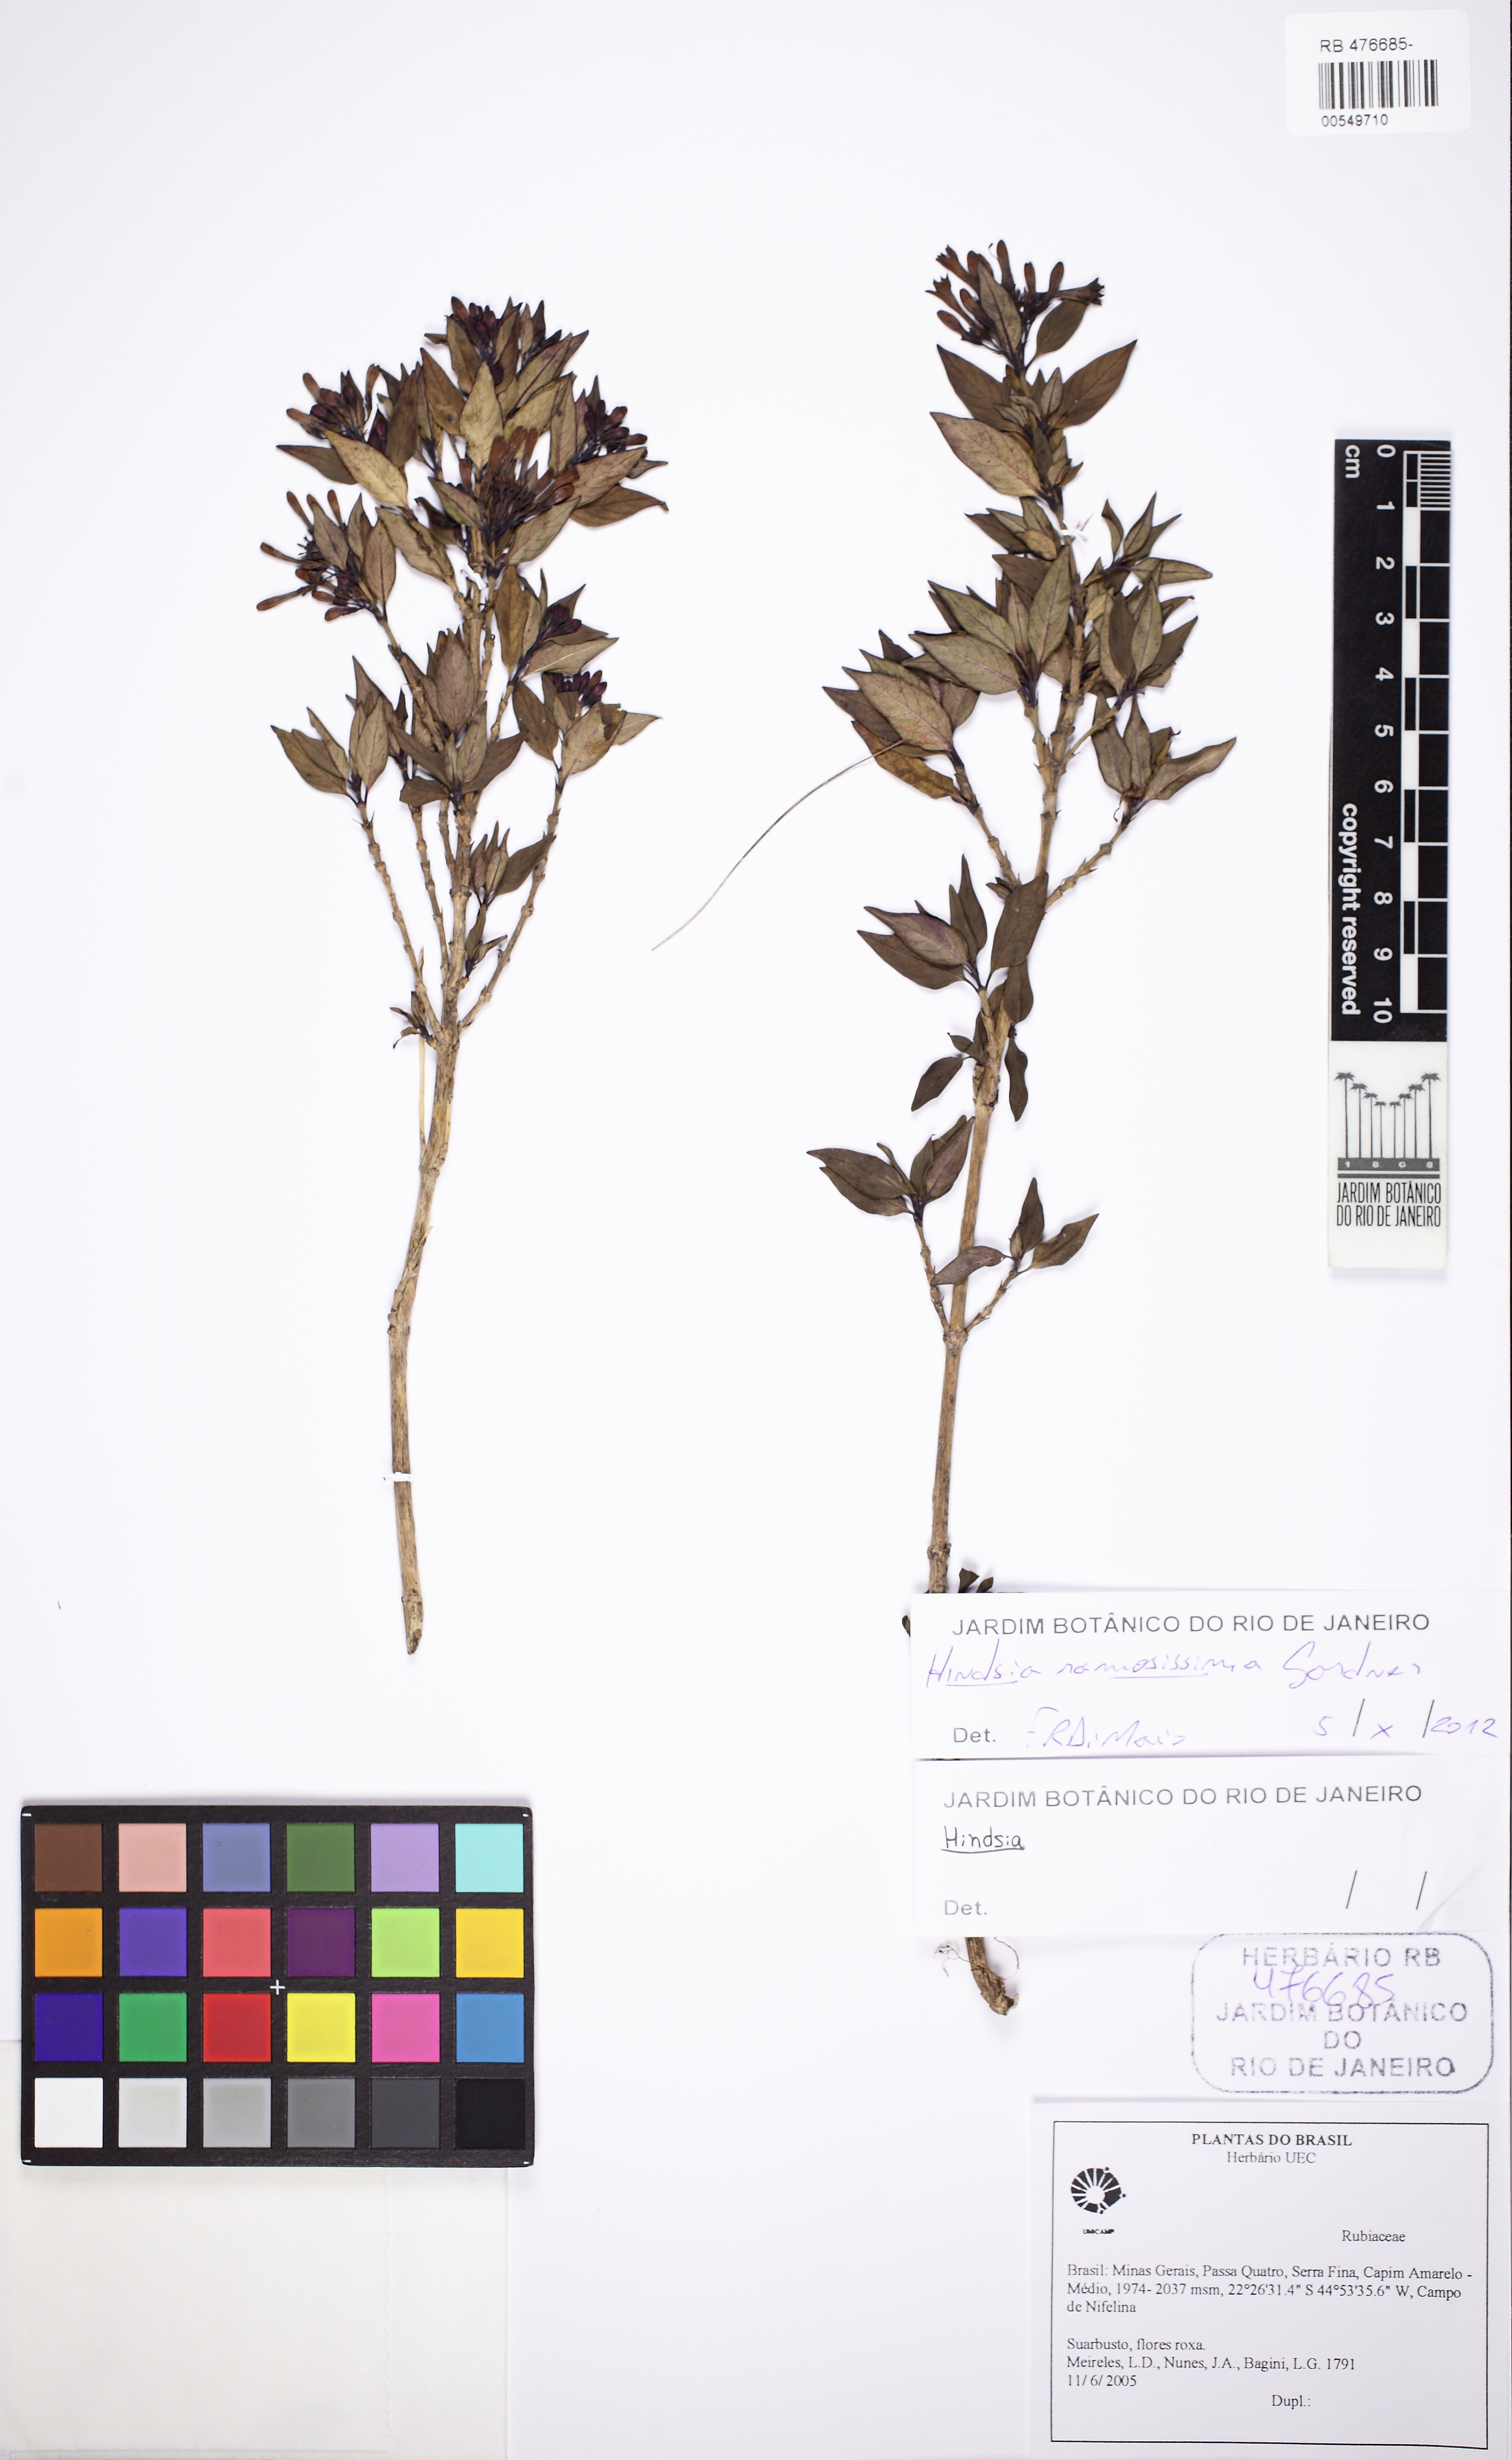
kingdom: Plantae
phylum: Tracheophyta
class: Magnoliopsida
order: Gentianales
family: Rubiaceae
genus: Hindsia
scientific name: Hindsia ramosissima
